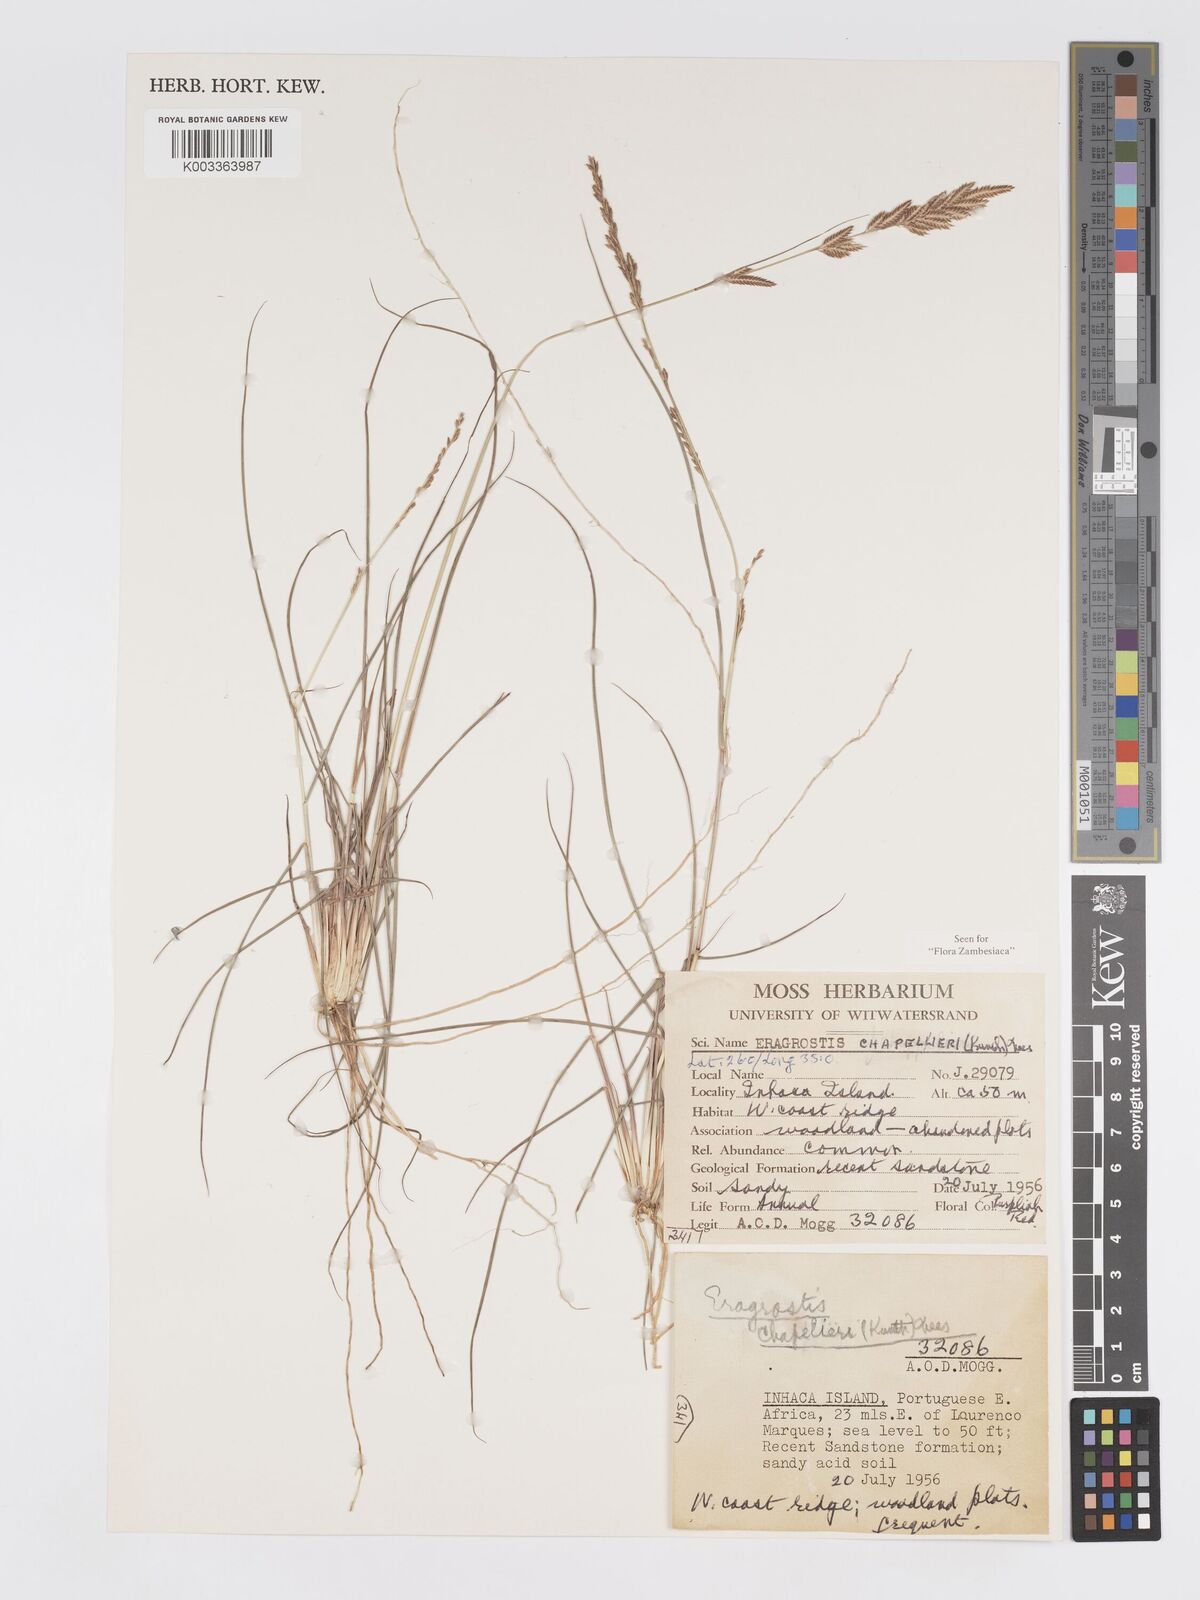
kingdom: Plantae
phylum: Tracheophyta
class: Liliopsida
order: Poales
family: Poaceae
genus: Eragrostis
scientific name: Eragrostis chapelieri
